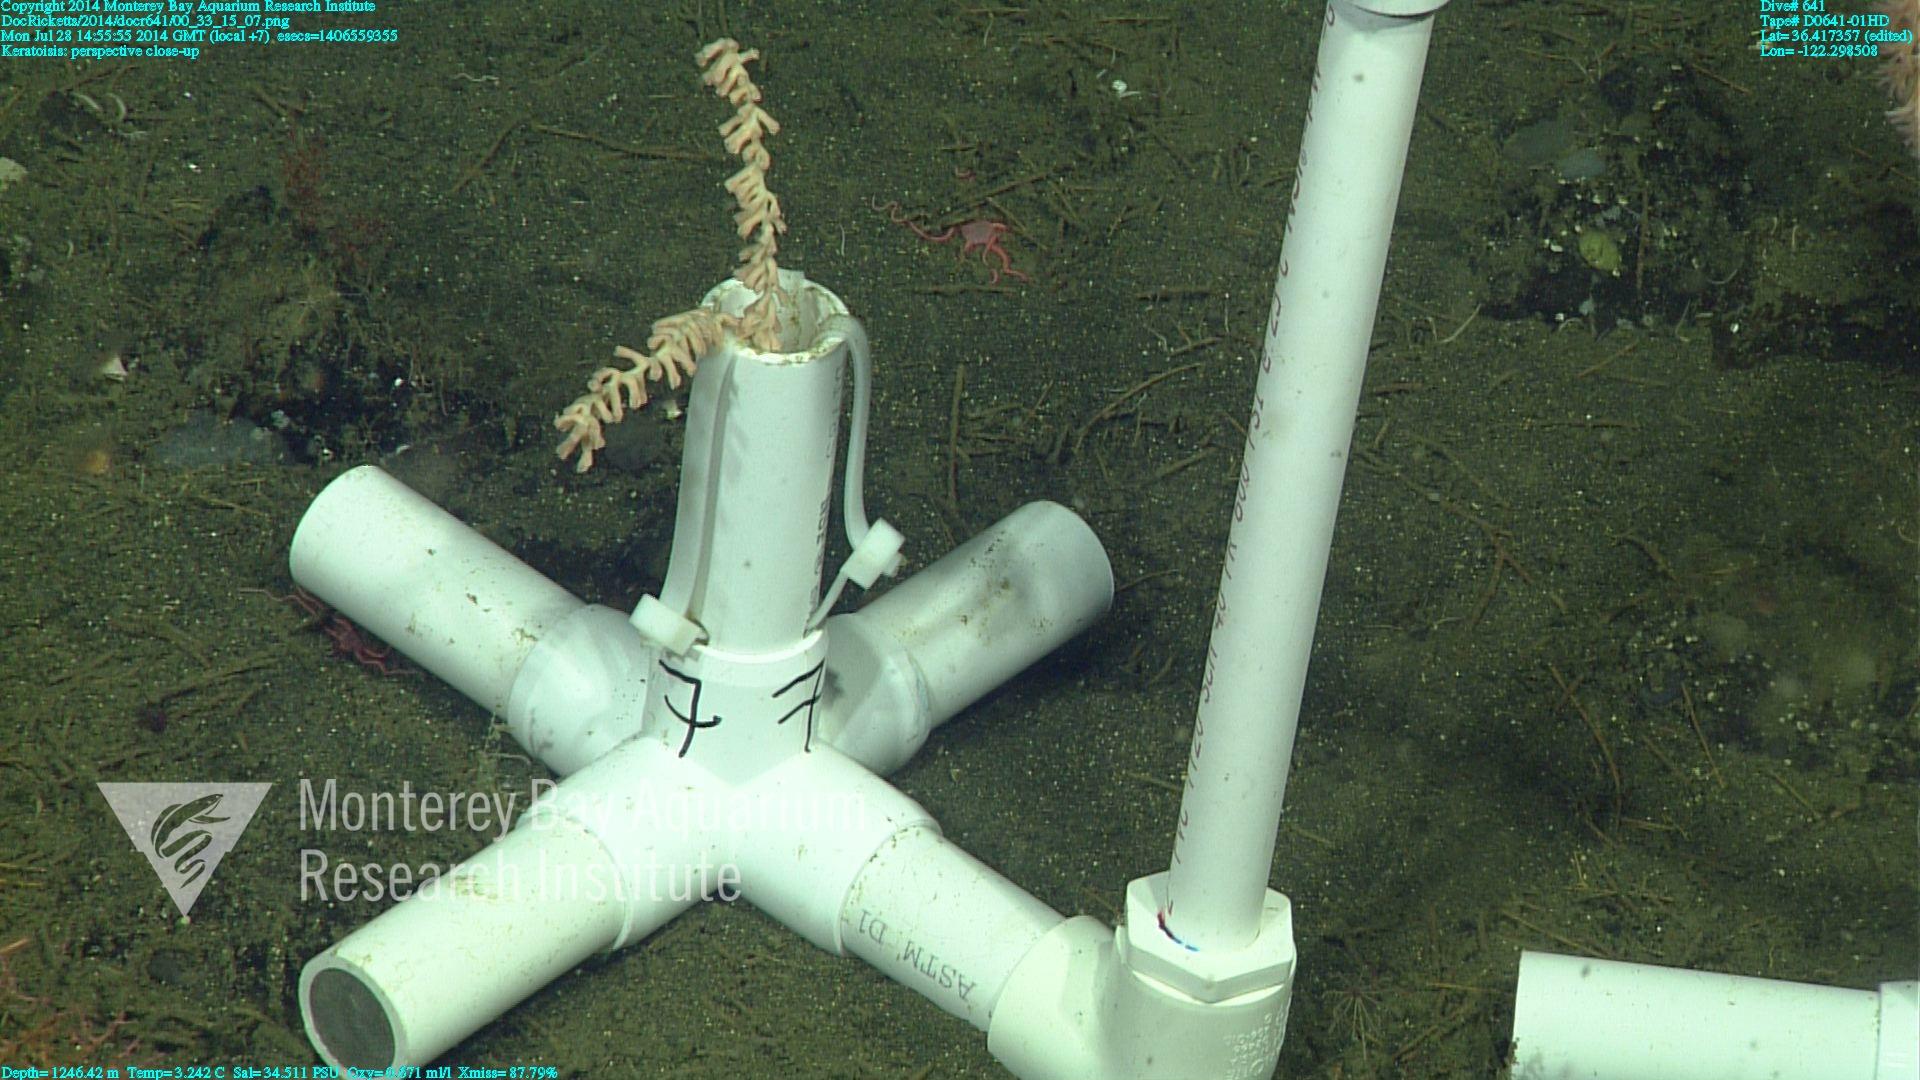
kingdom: Animalia
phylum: Cnidaria
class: Anthozoa
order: Scleralcyonacea
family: Keratoisididae
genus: Keratoisis
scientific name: Keratoisis
